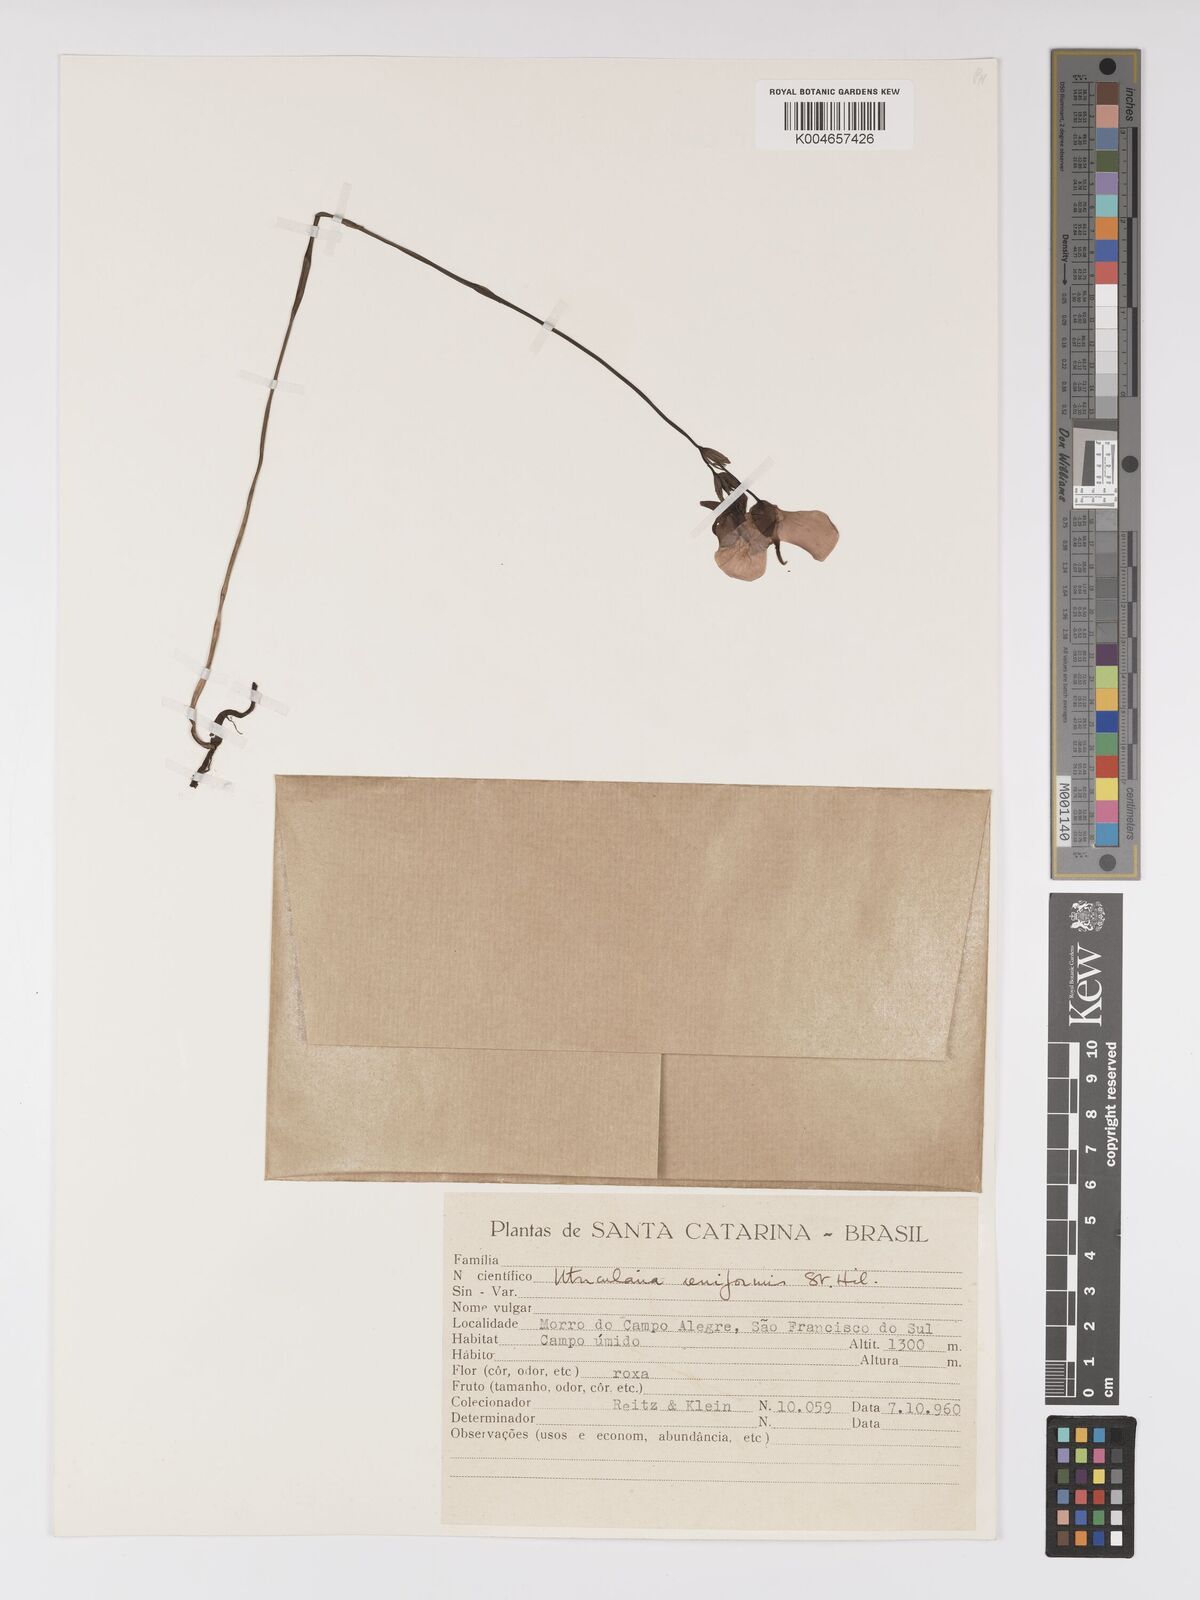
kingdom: Plantae
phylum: Tracheophyta
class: Magnoliopsida
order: Lamiales
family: Lentibulariaceae
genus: Utricularia
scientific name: Utricularia reniformis
